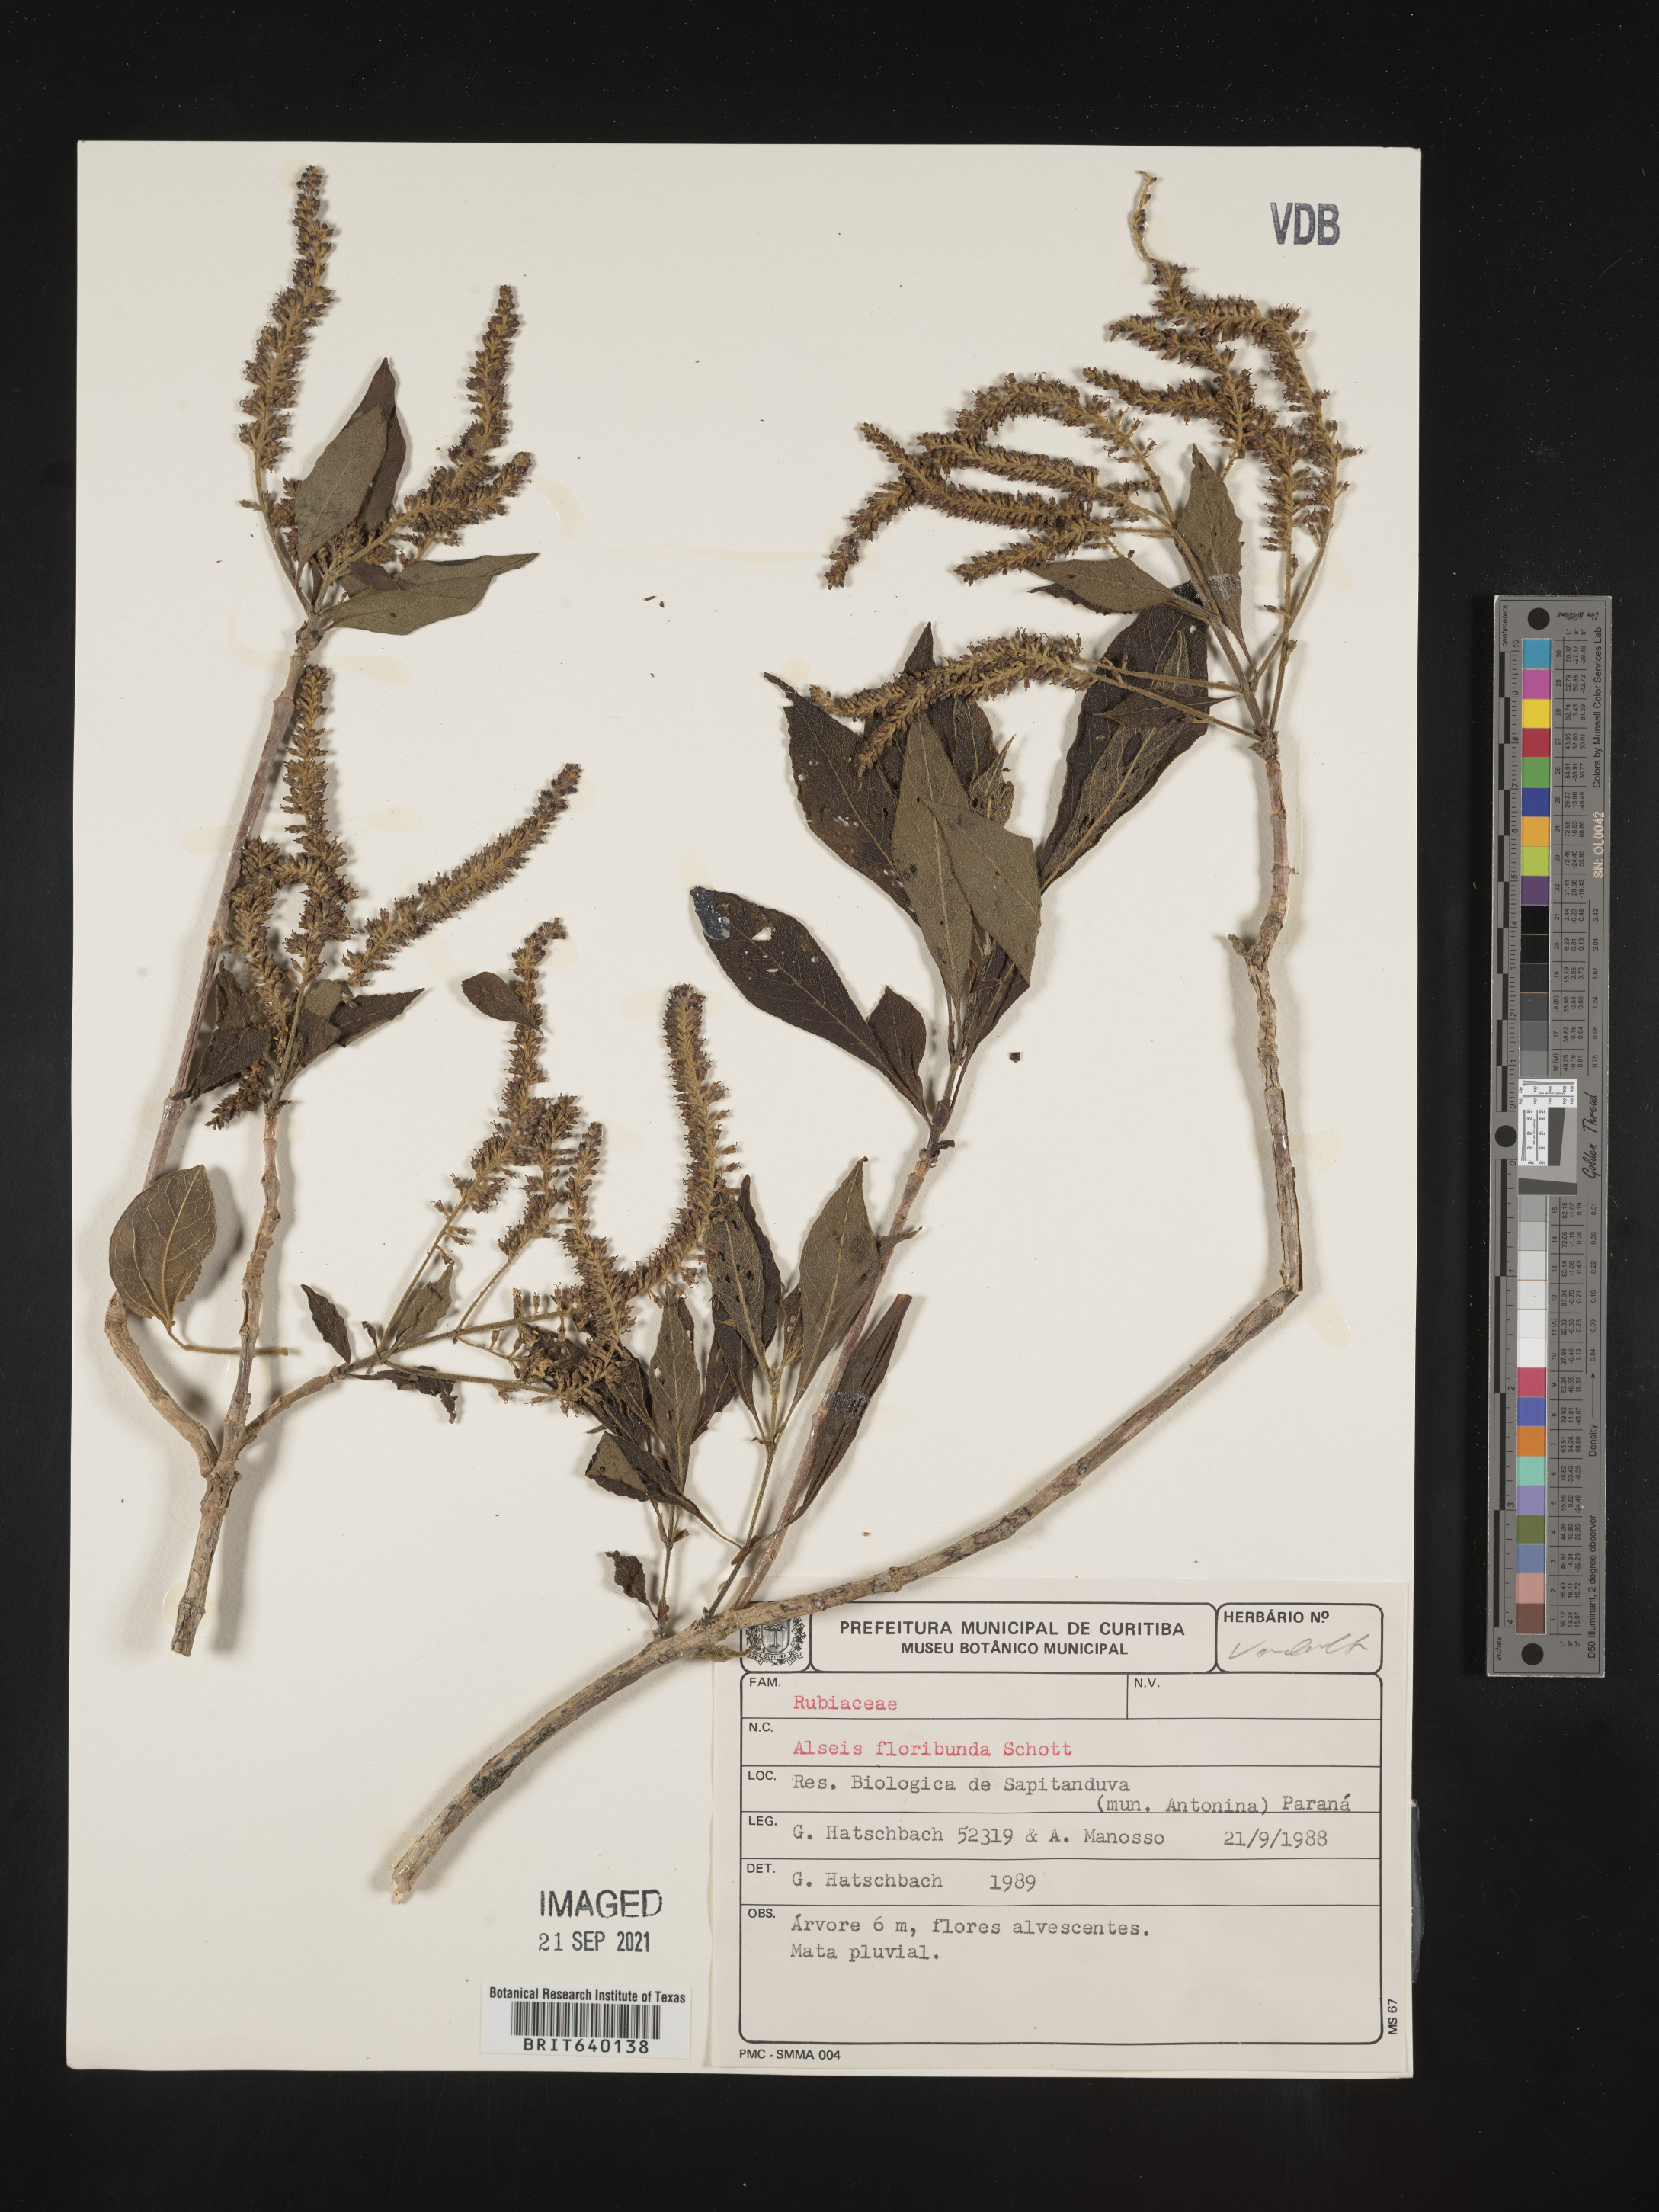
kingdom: Plantae
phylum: Tracheophyta
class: Magnoliopsida
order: Gentianales
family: Rubiaceae
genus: Alseis
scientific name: Alseis
